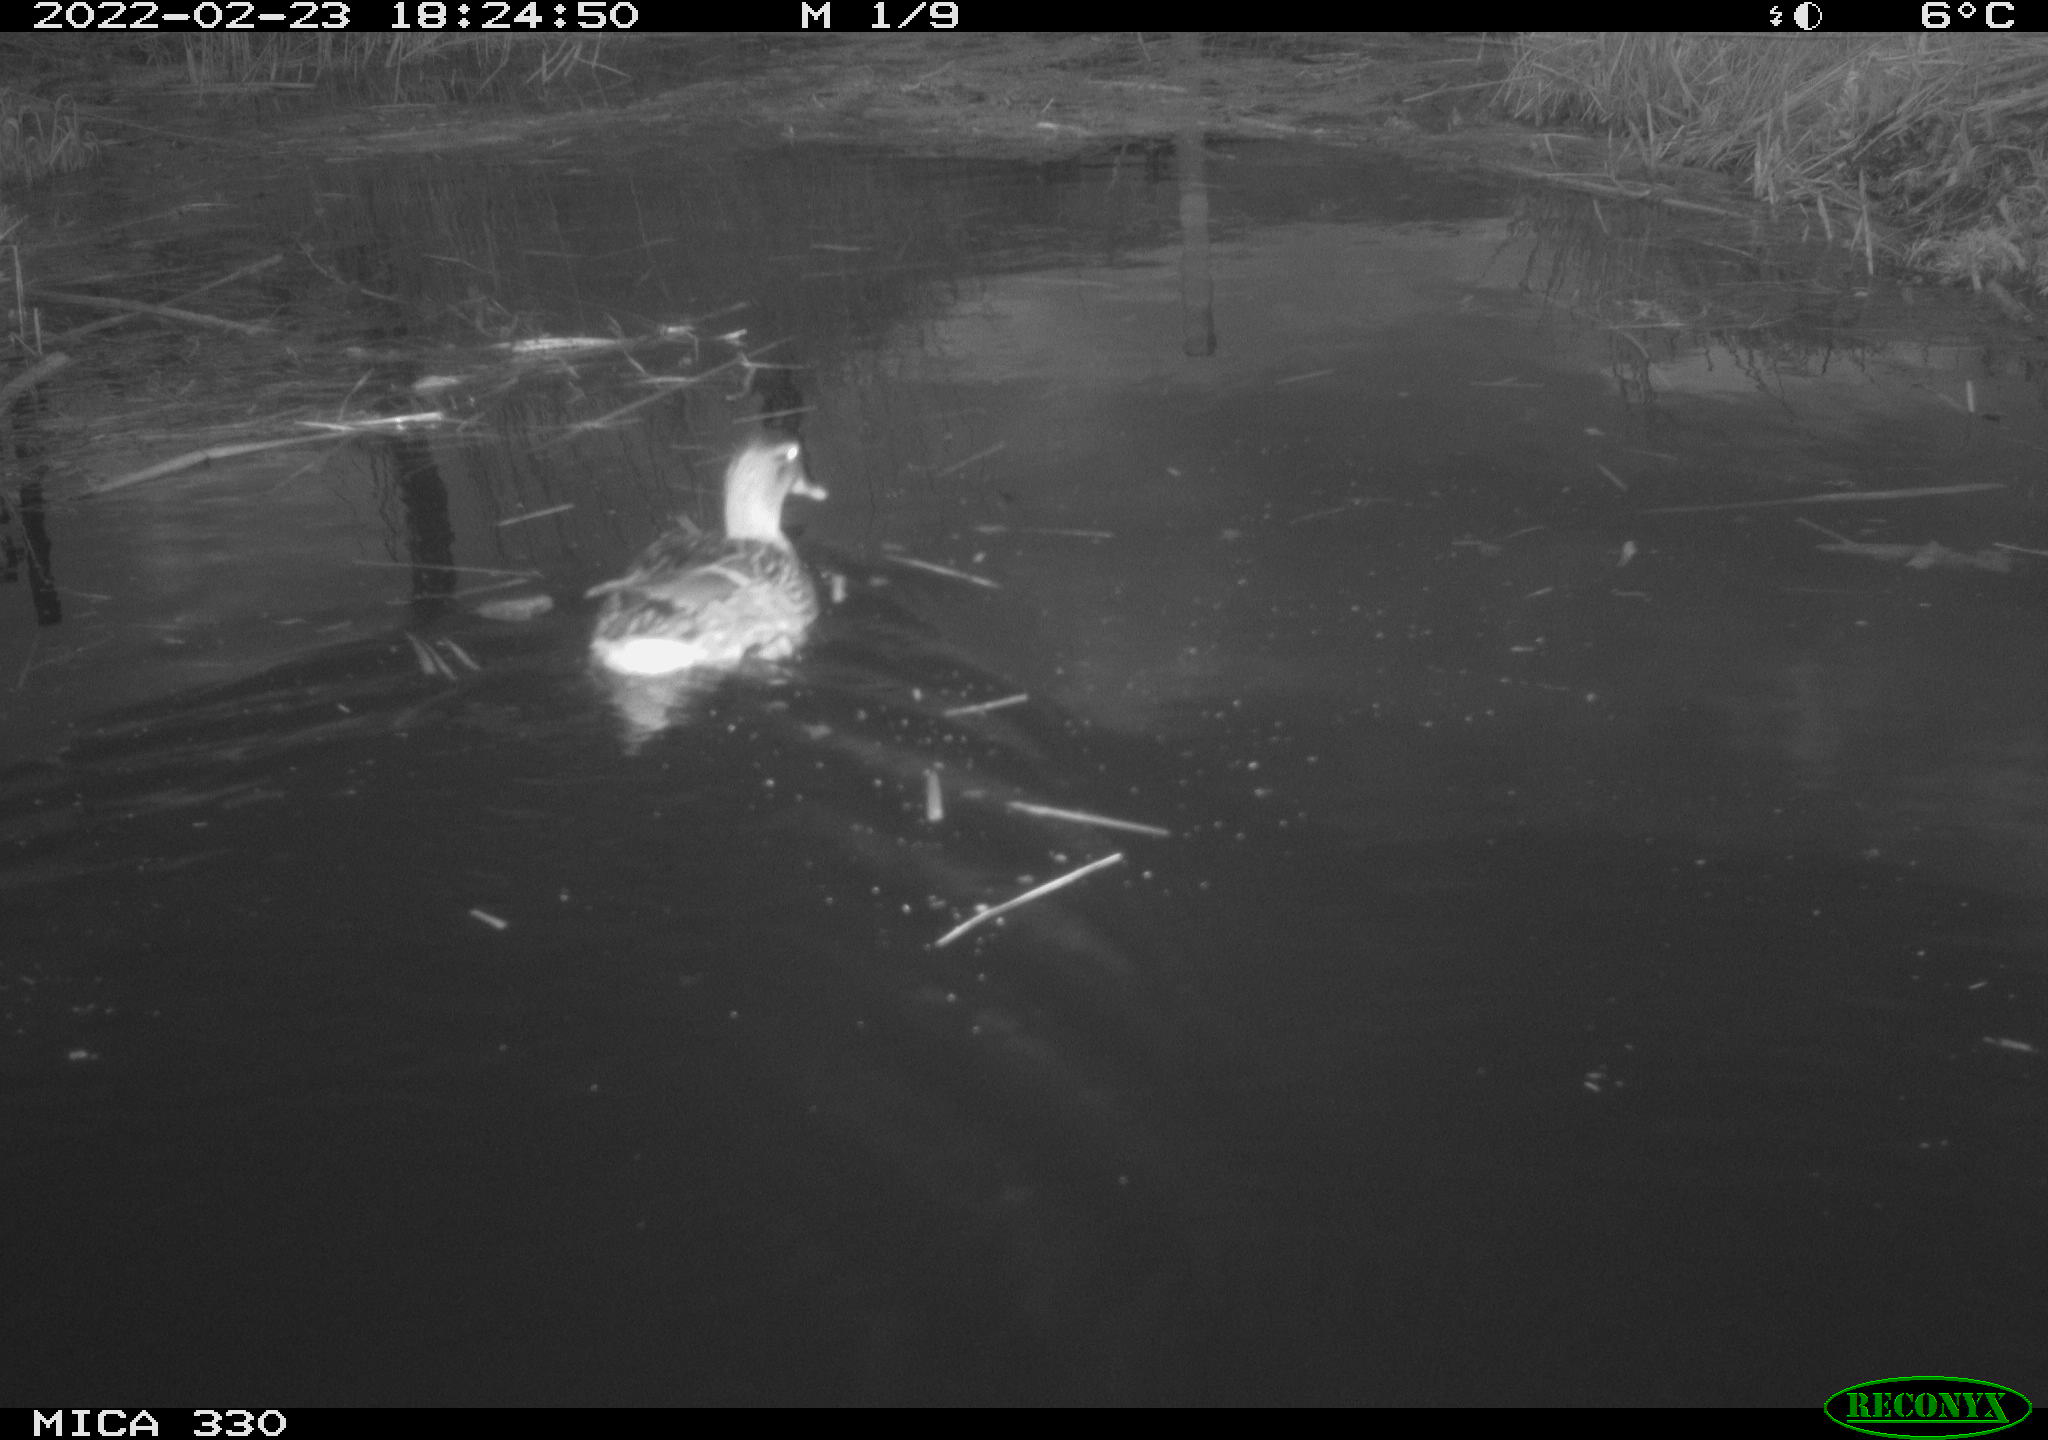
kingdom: Animalia
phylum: Chordata
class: Aves
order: Anseriformes
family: Anatidae
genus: Anas
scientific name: Anas platyrhynchos
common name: Mallard
